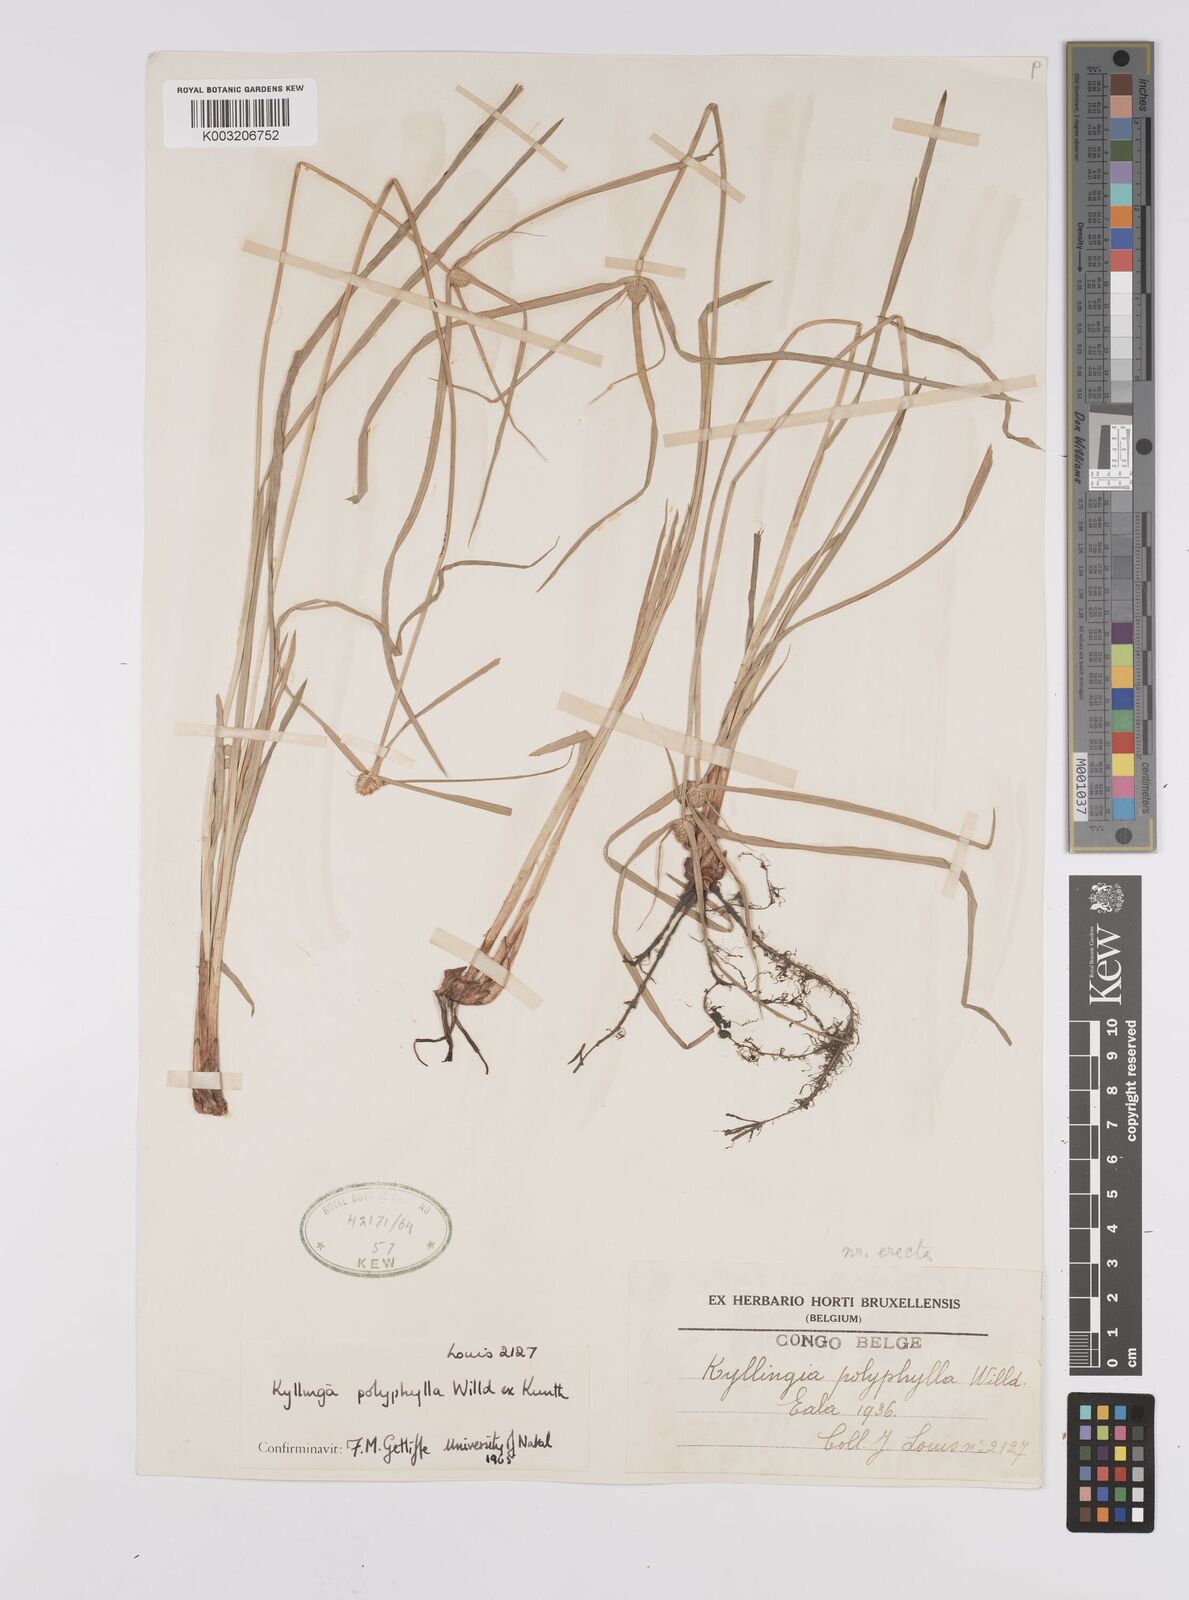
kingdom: Plantae
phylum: Tracheophyta
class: Liliopsida
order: Poales
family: Cyperaceae
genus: Cyperus
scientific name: Cyperus
